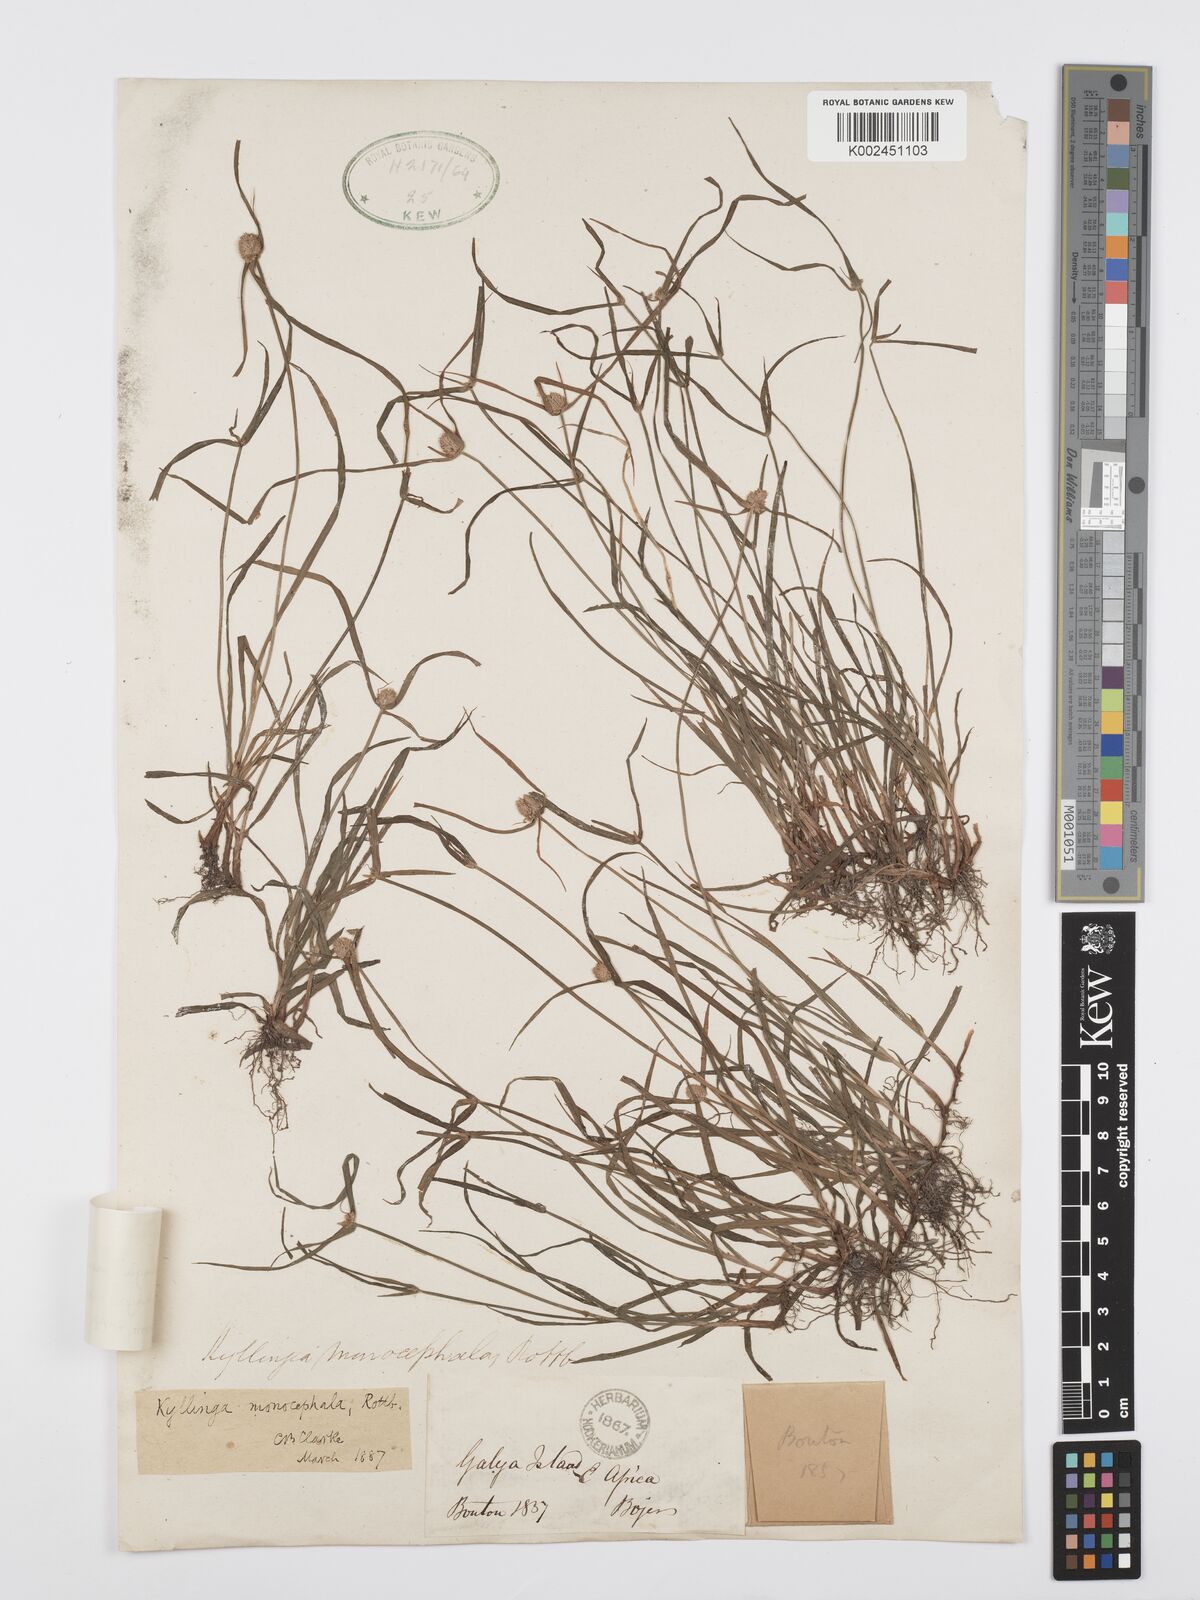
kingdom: Plantae
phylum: Tracheophyta
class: Liliopsida
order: Poales
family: Cyperaceae
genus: Cyperus
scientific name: Cyperus nemoralis
